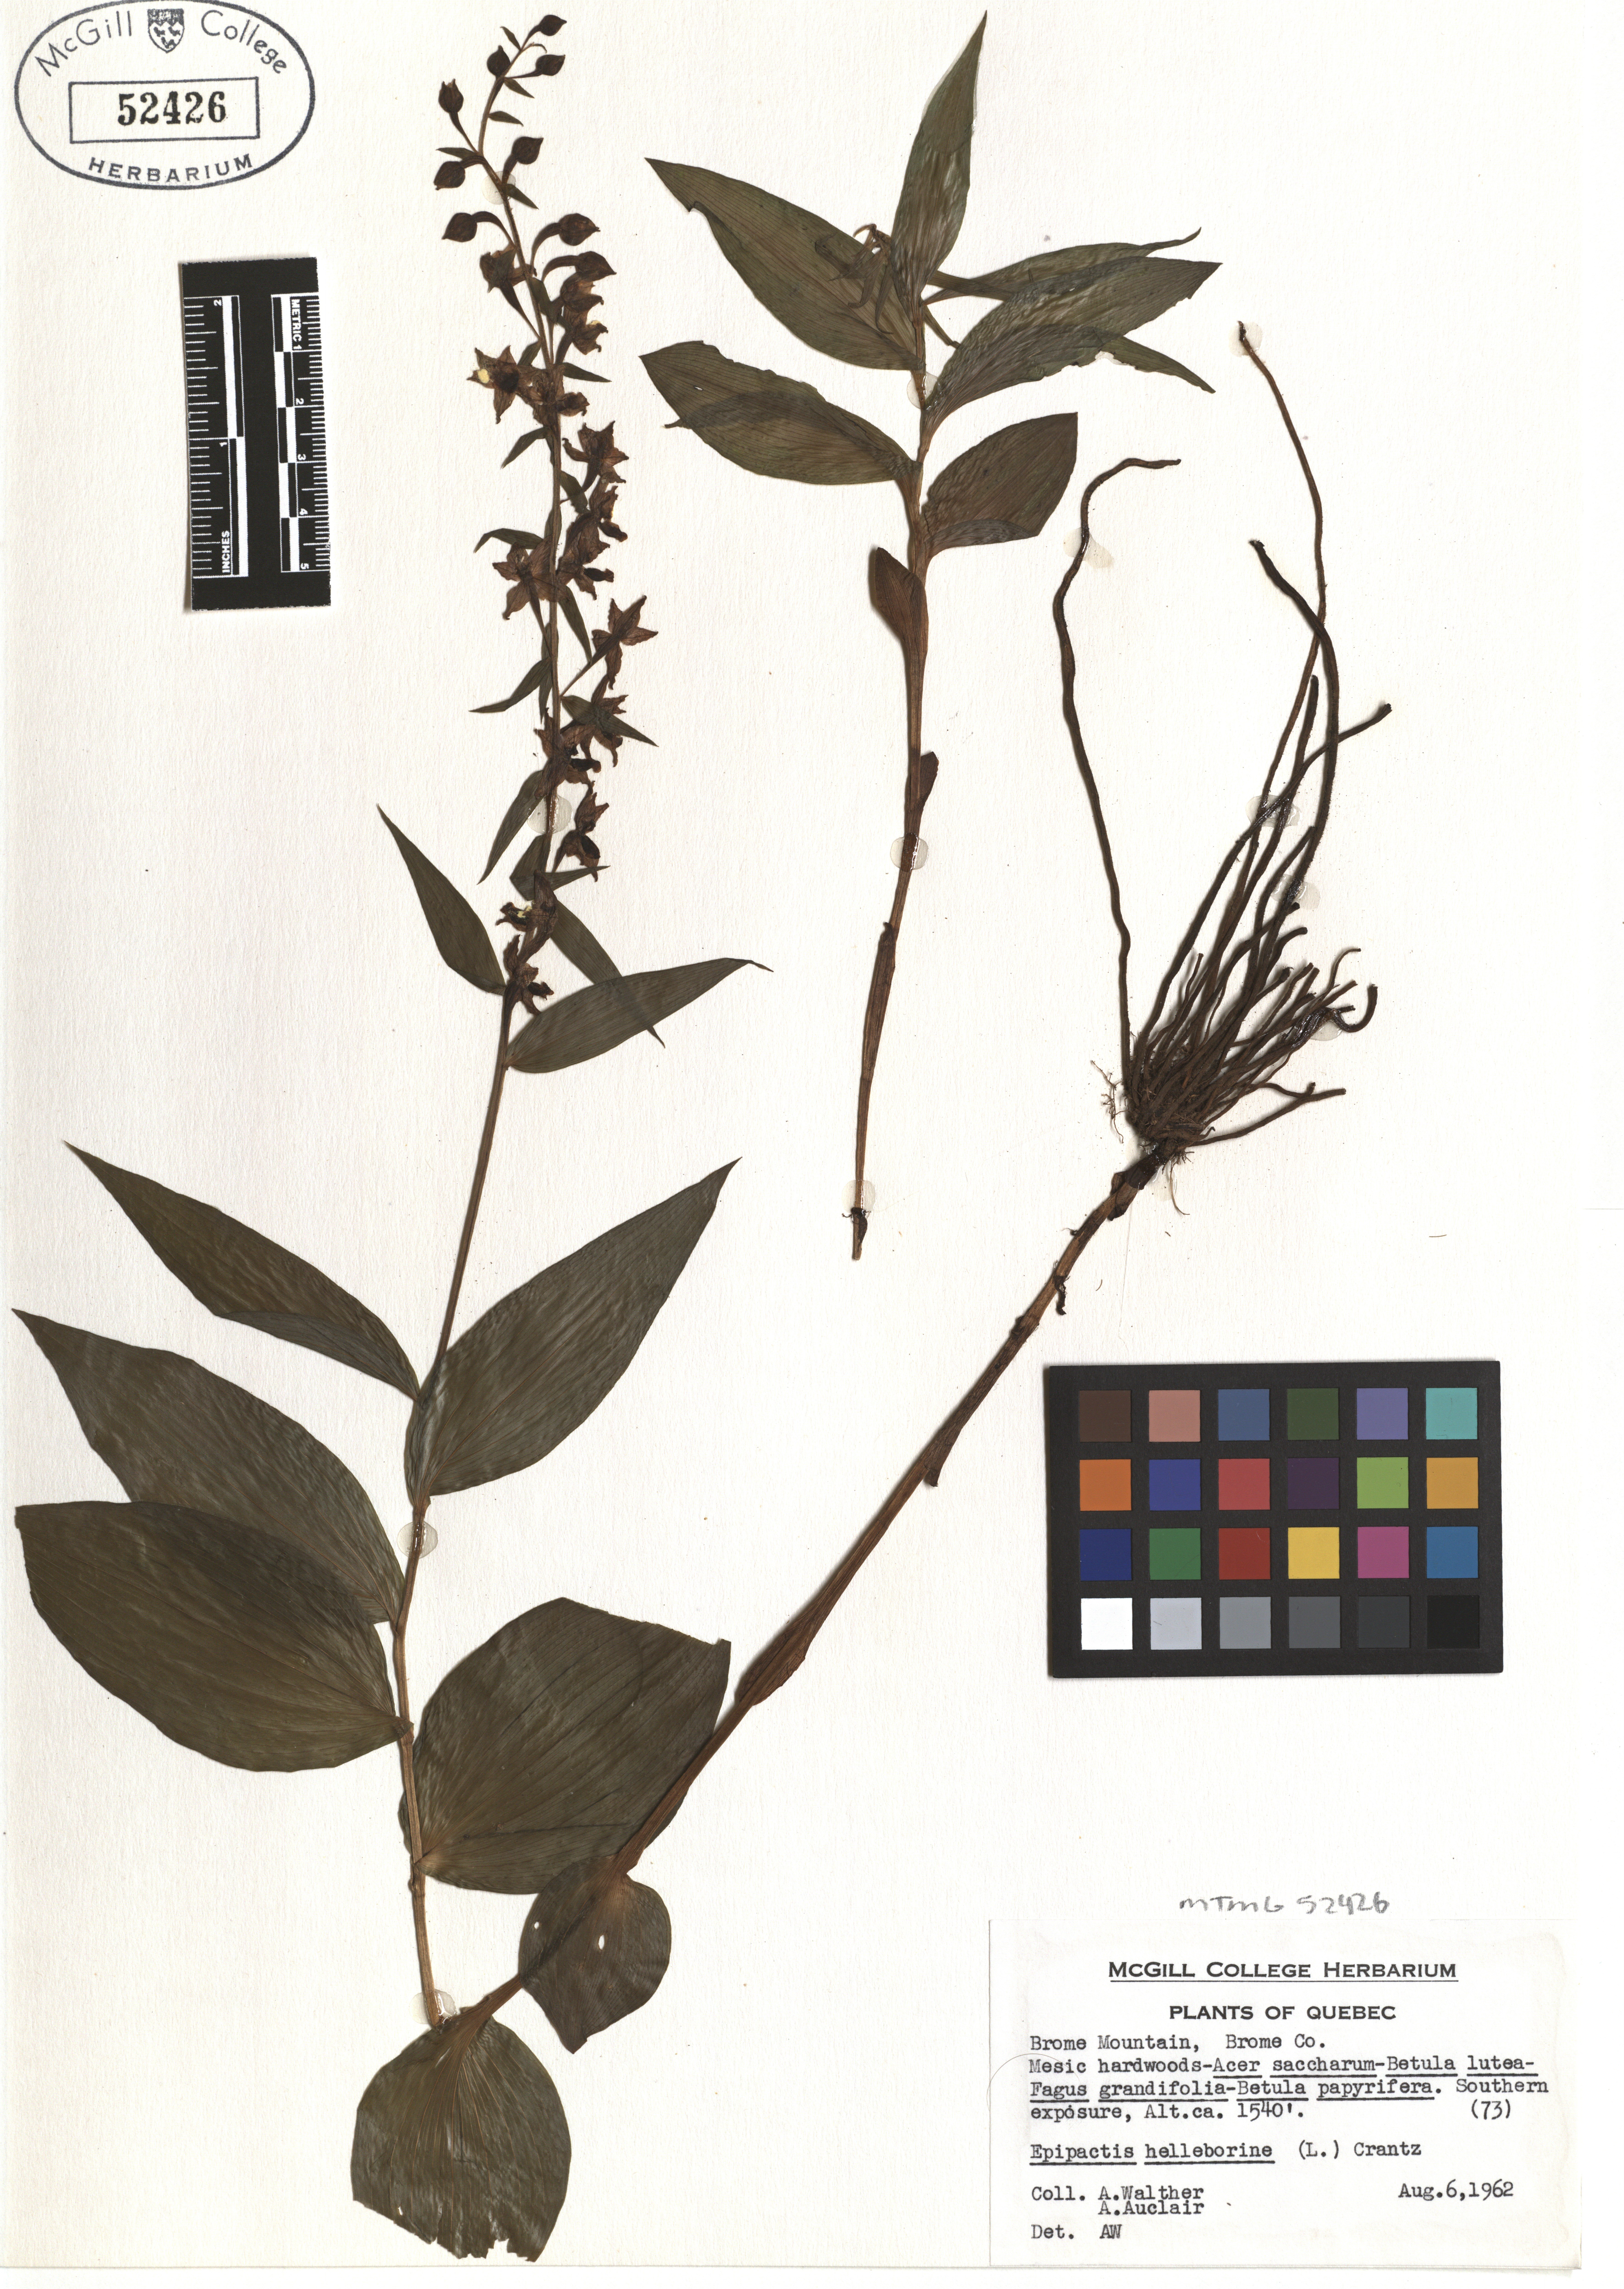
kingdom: Plantae
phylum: Tracheophyta
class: Liliopsida
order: Asparagales
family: Orchidaceae
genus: Epipactis
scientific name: Epipactis helleborine
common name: Broad-leaved helleborine
